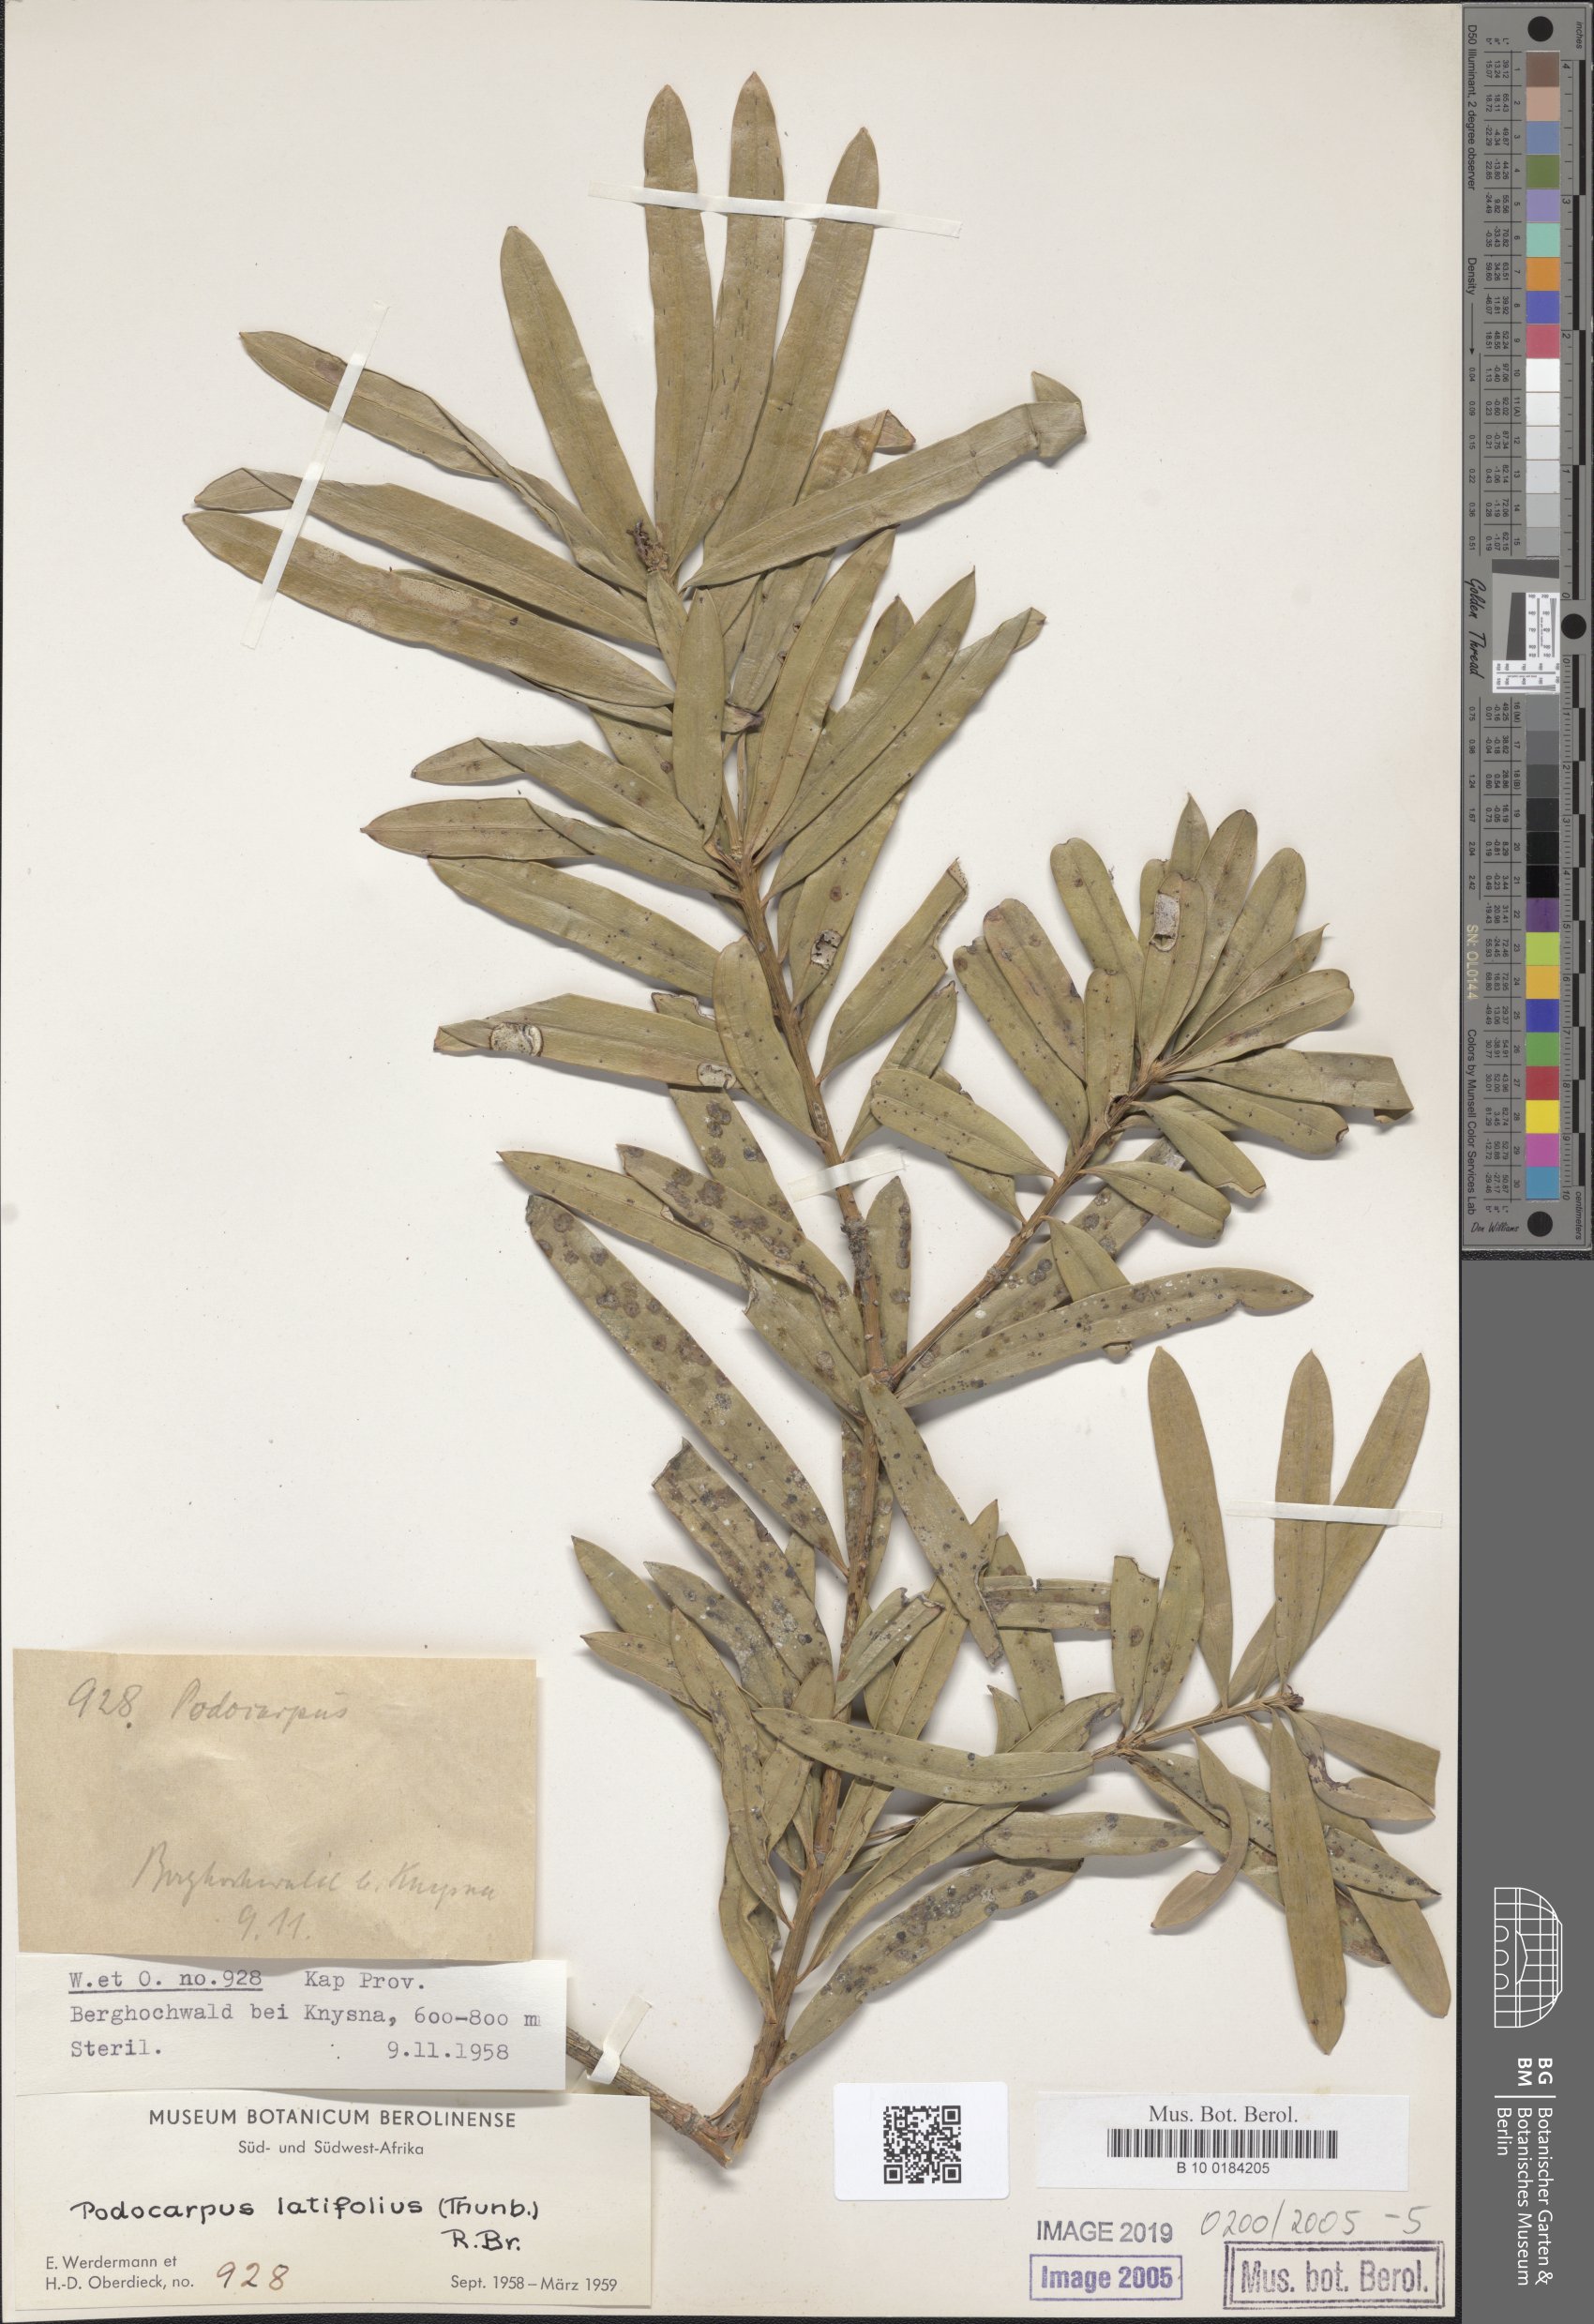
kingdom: Plantae
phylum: Tracheophyta
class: Pinopsida
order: Pinales
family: Podocarpaceae
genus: Podocarpus
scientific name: Podocarpus latifolius
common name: True yellowwood
